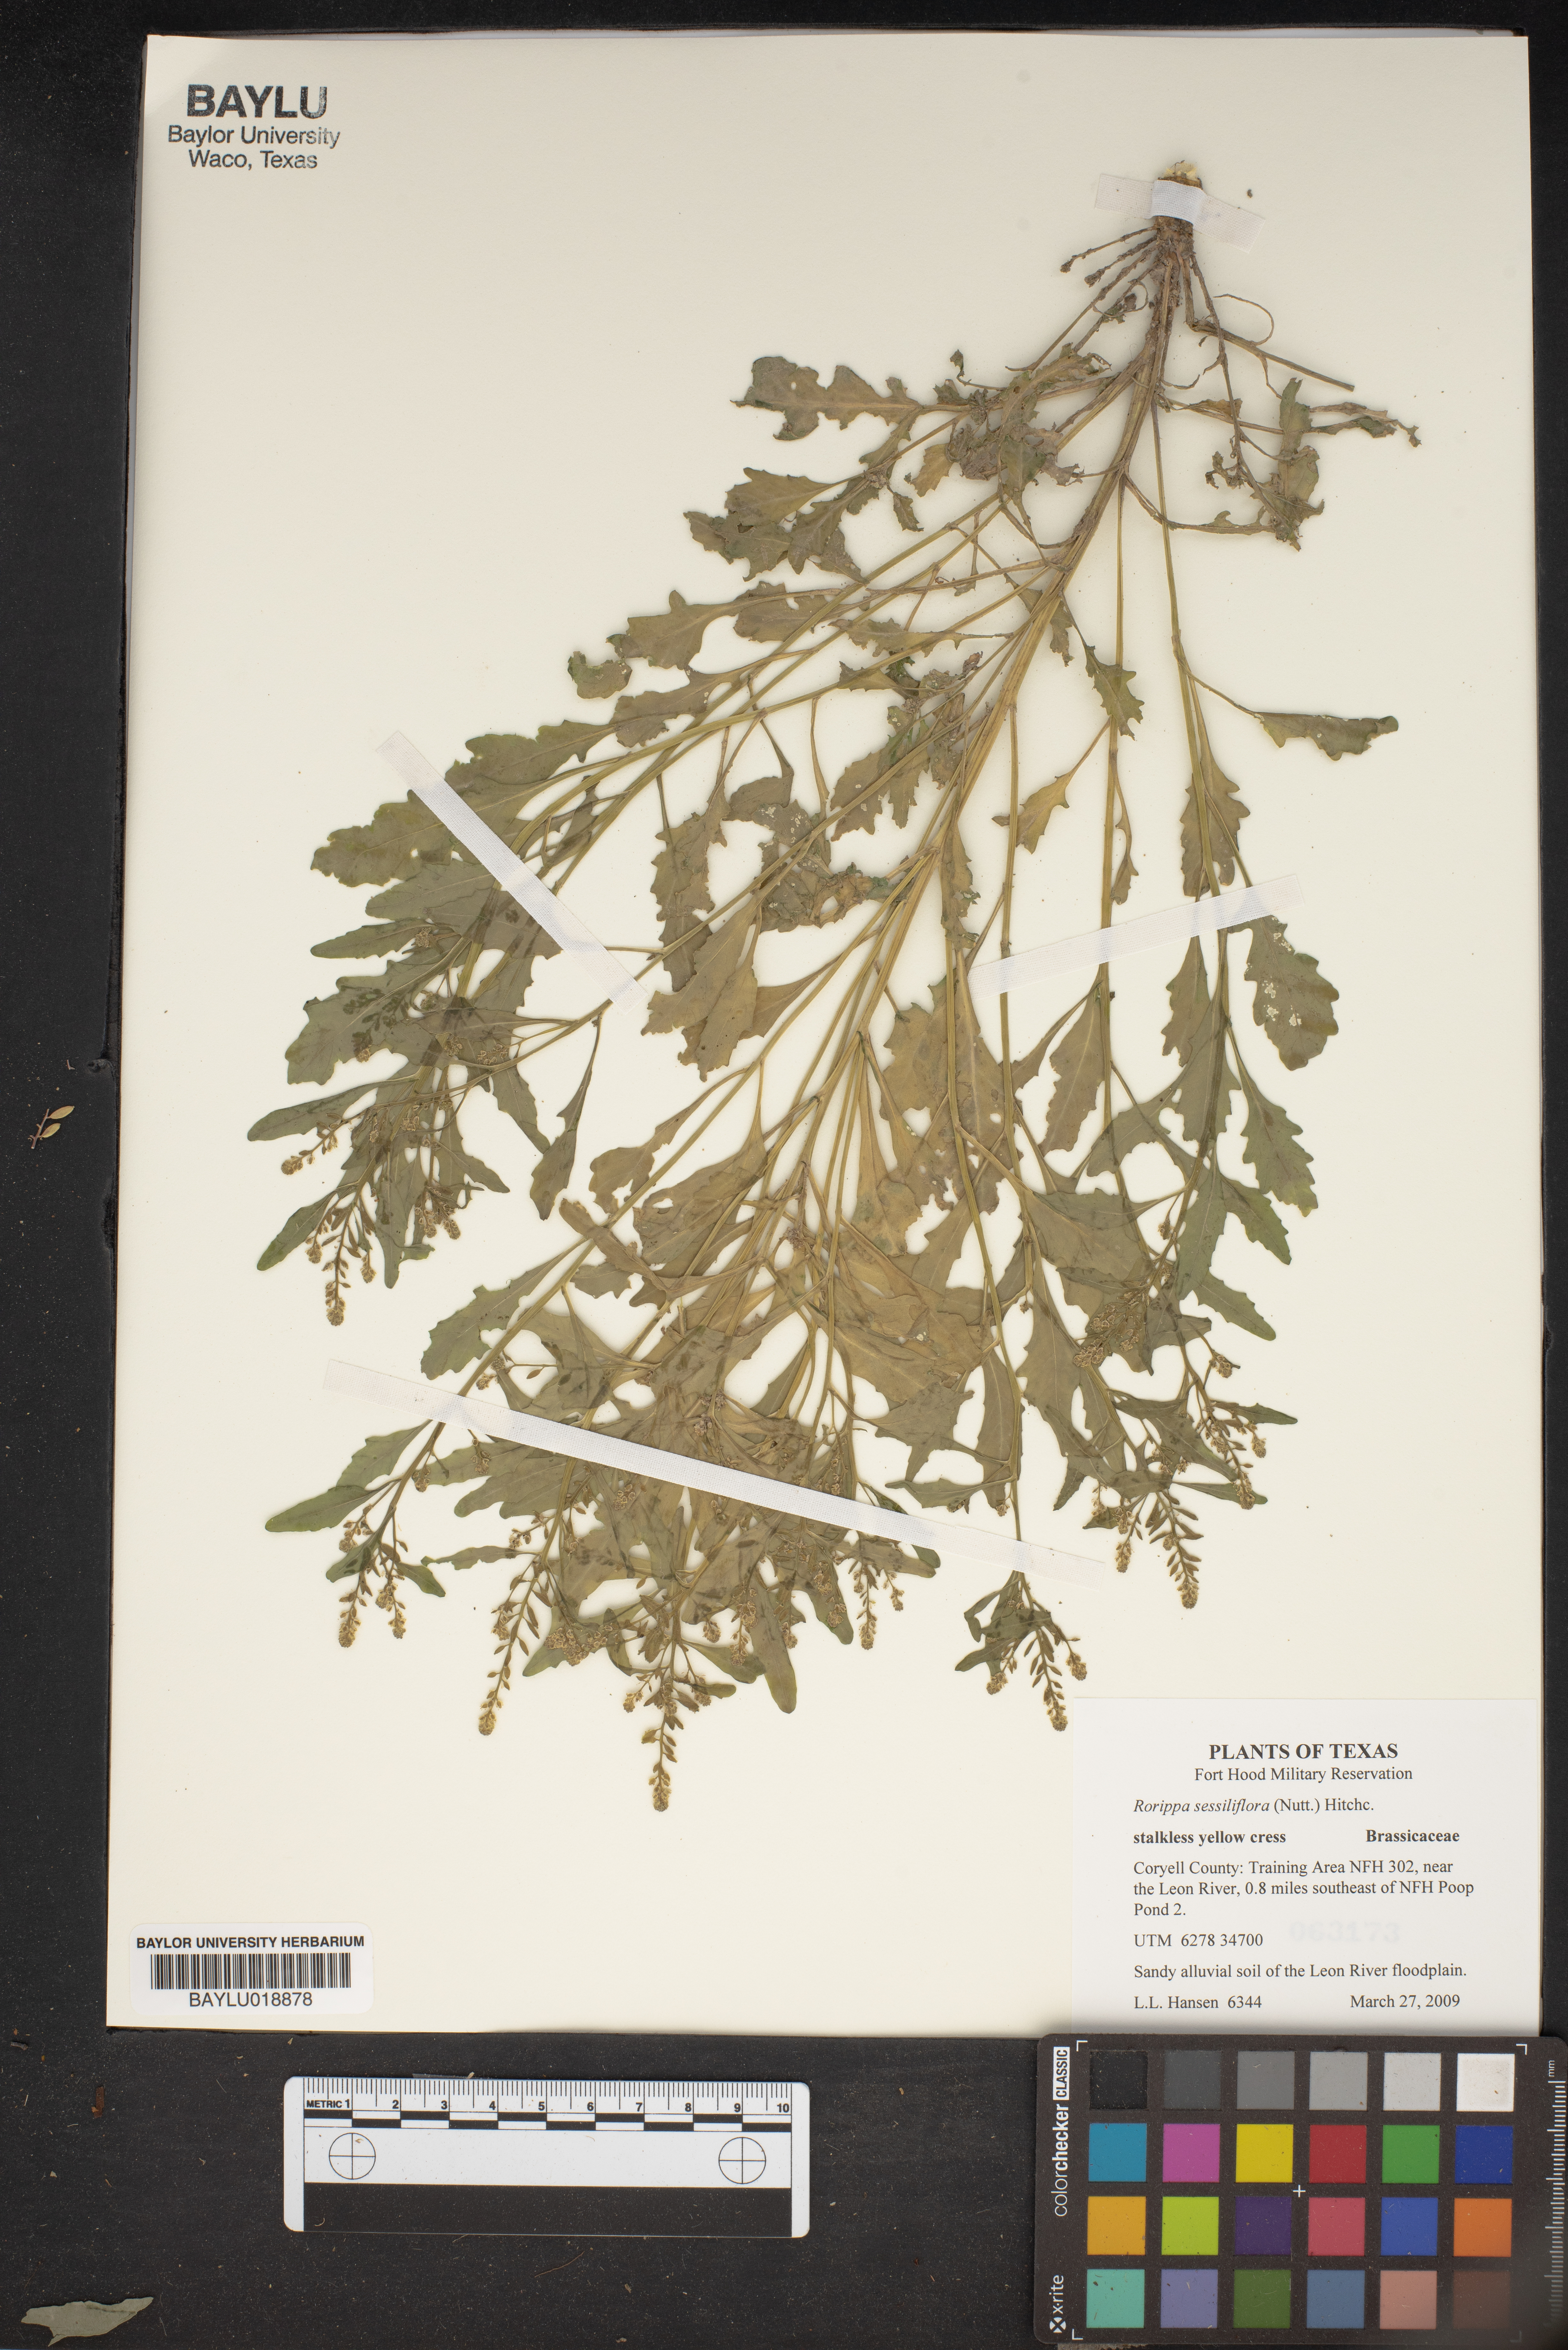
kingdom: Plantae
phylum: Tracheophyta
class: Magnoliopsida
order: Brassicales
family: Brassicaceae
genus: Rorippa
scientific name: Rorippa sessiliflora
